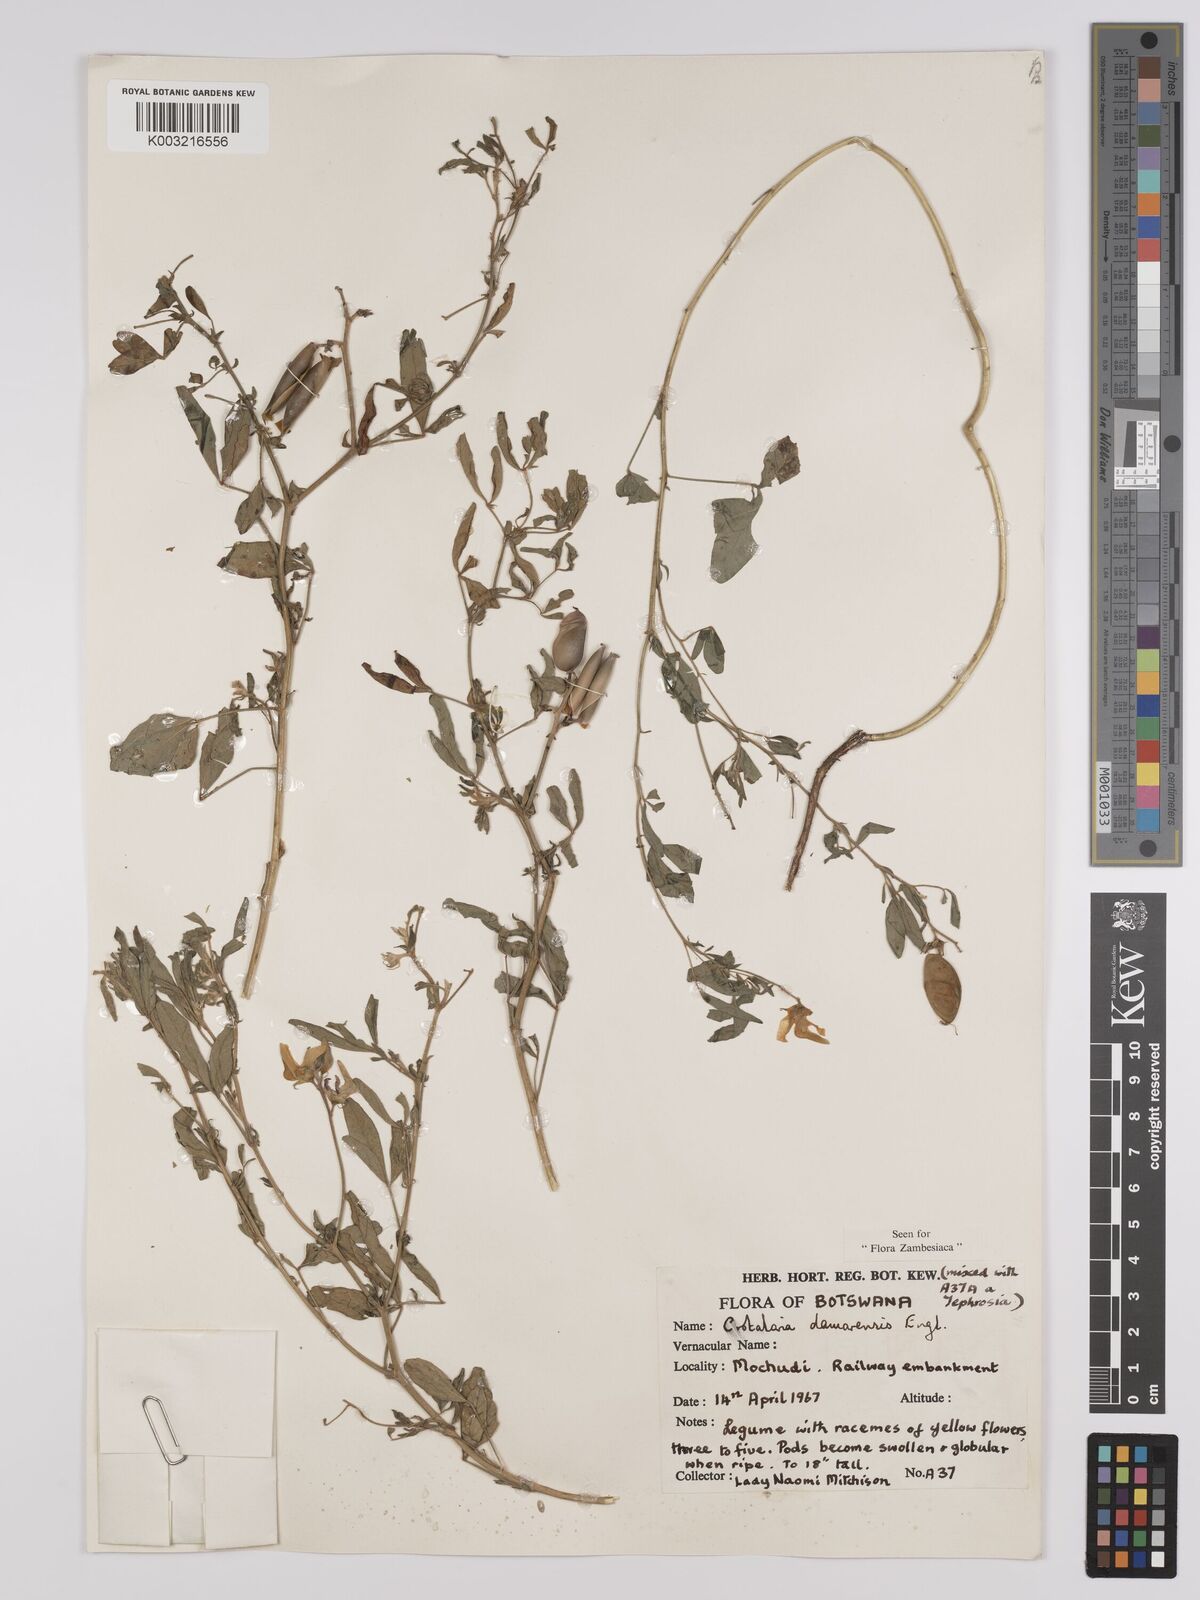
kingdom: Plantae
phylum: Tracheophyta
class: Magnoliopsida
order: Fabales
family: Fabaceae
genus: Crotalaria
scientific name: Crotalaria damarensis
